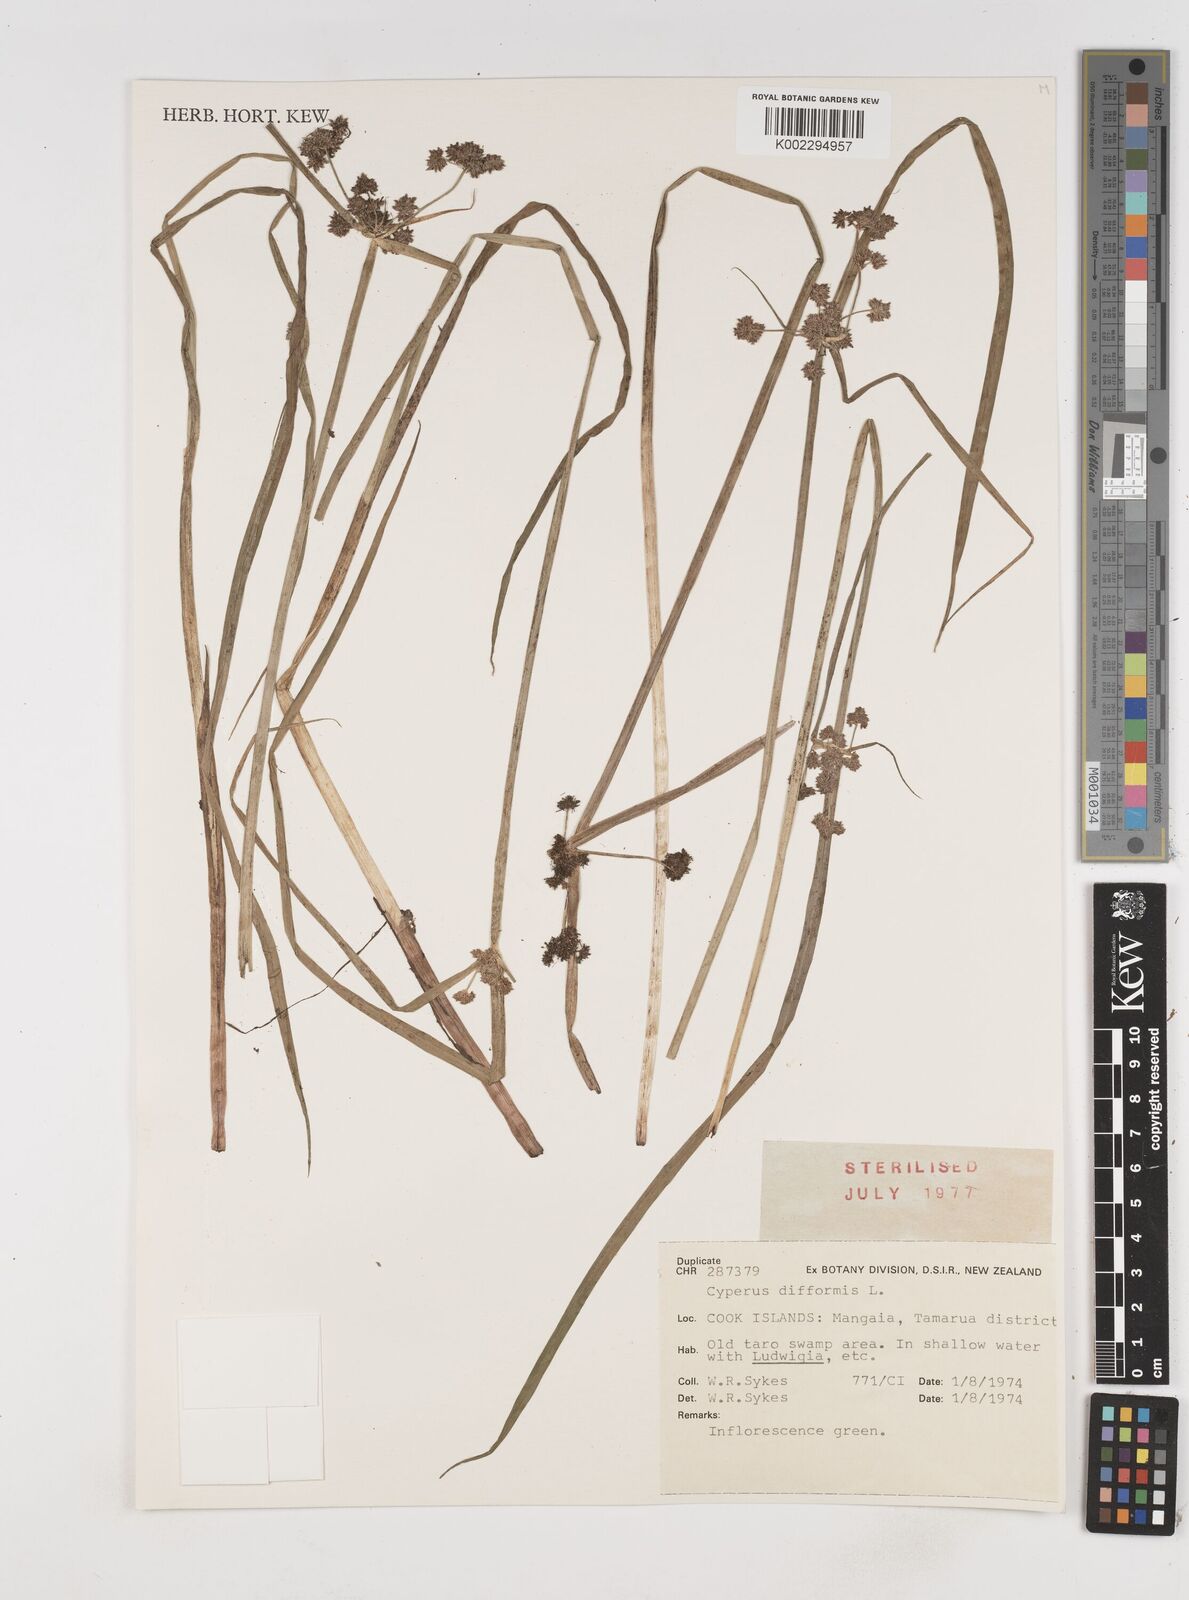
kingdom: Plantae
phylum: Tracheophyta
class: Liliopsida
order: Poales
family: Cyperaceae
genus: Cyperus
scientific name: Cyperus difformis
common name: Variable flatsedge
